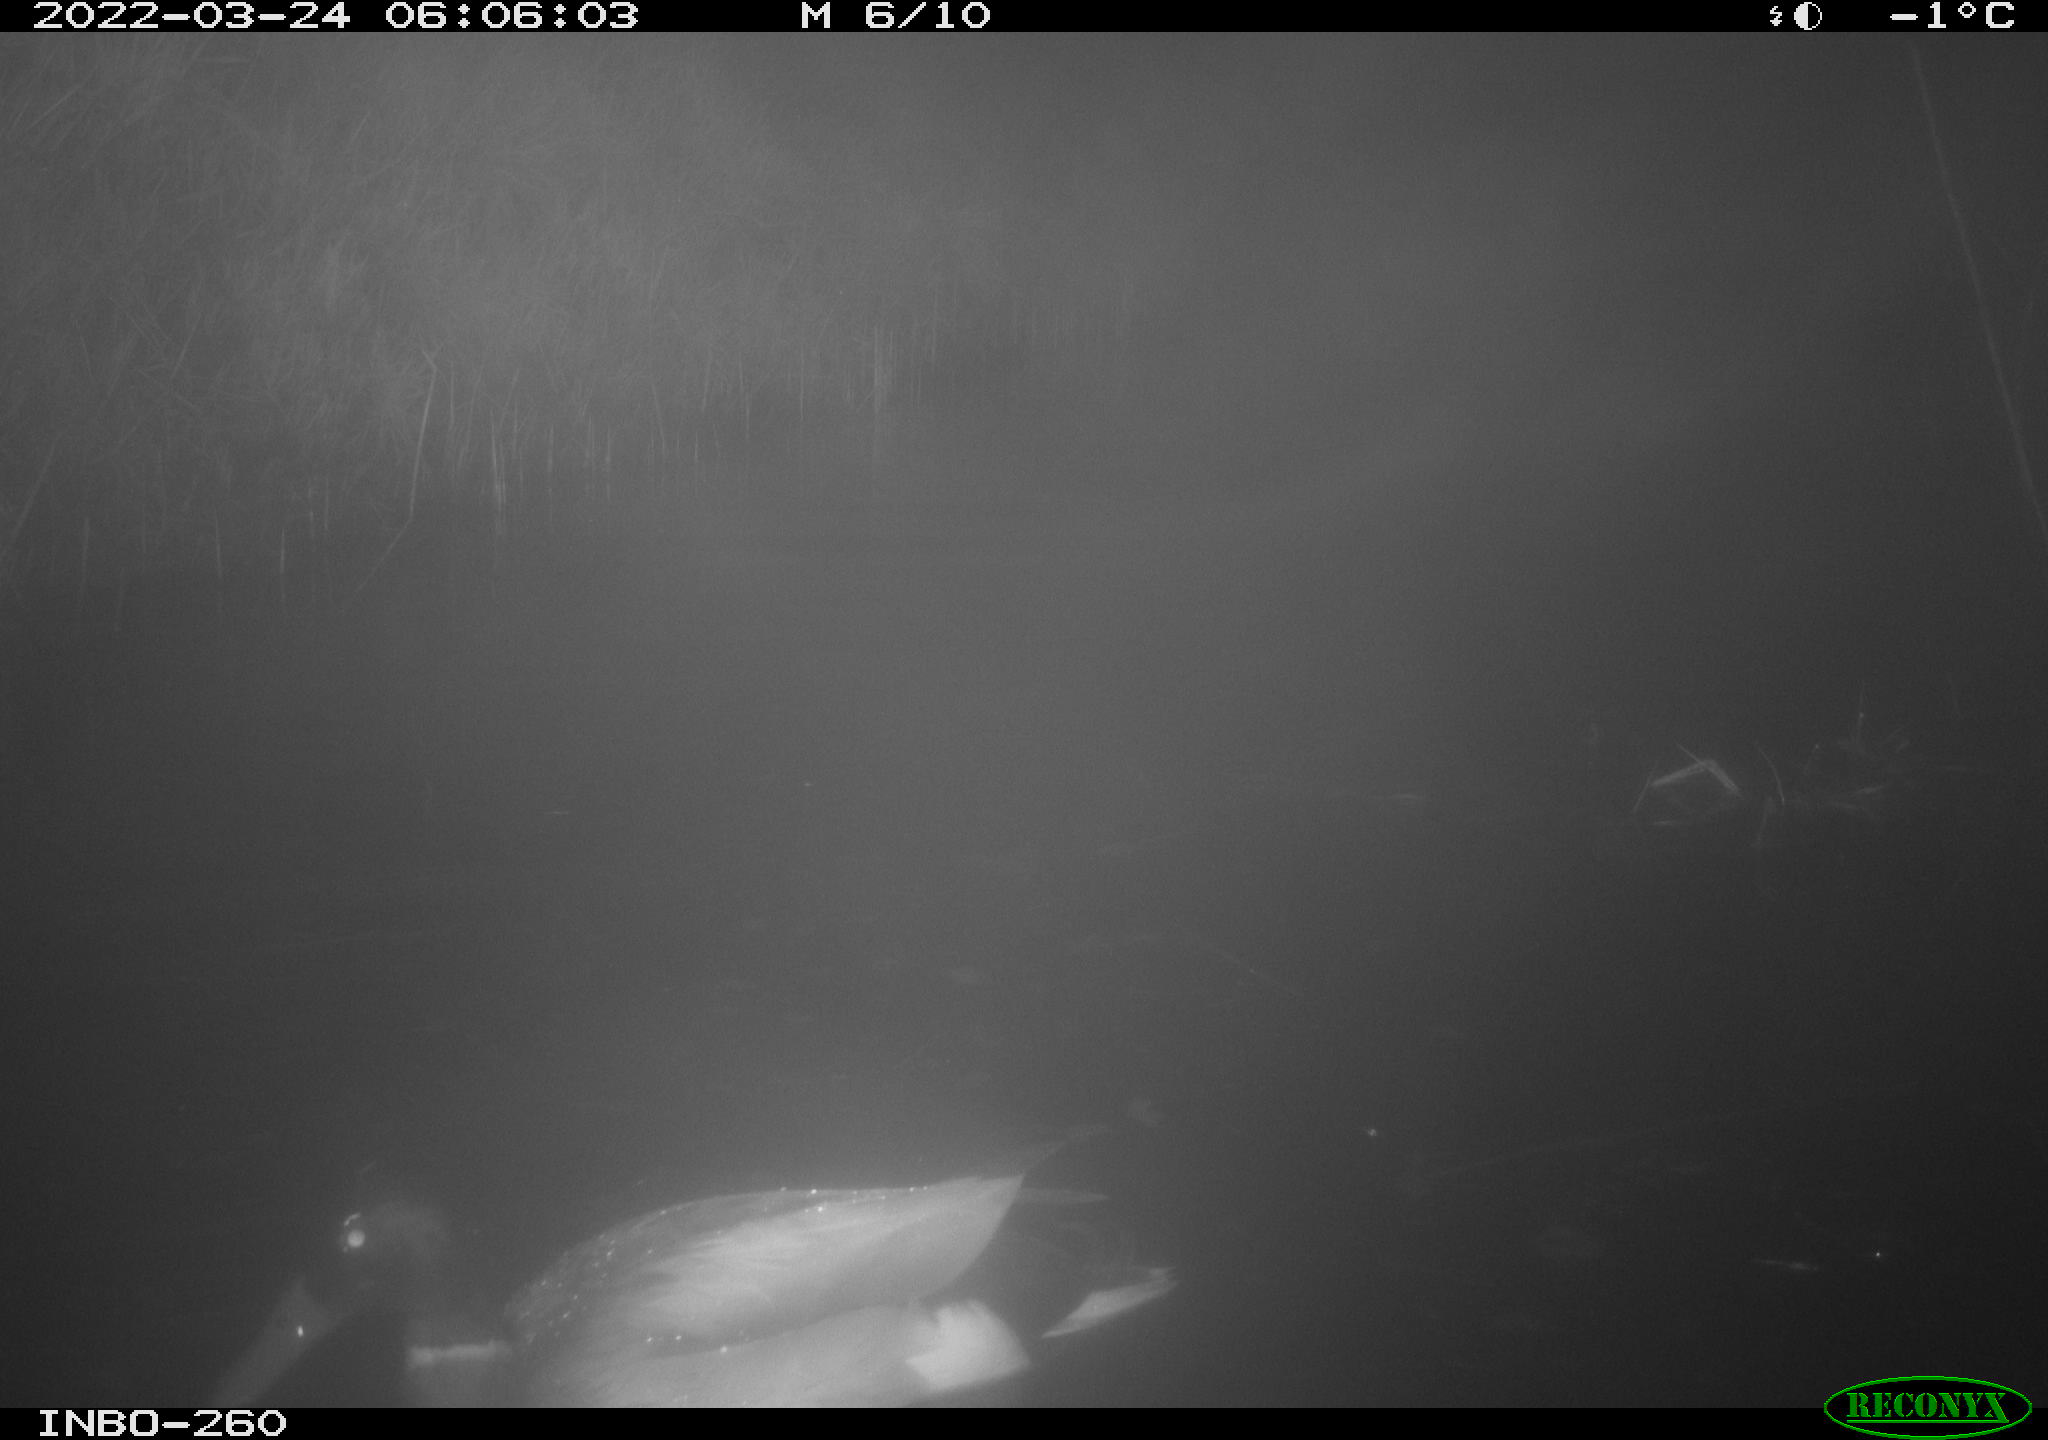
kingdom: Animalia
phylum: Chordata
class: Aves
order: Anseriformes
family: Anatidae
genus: Anas
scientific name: Anas platyrhynchos
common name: Mallard
